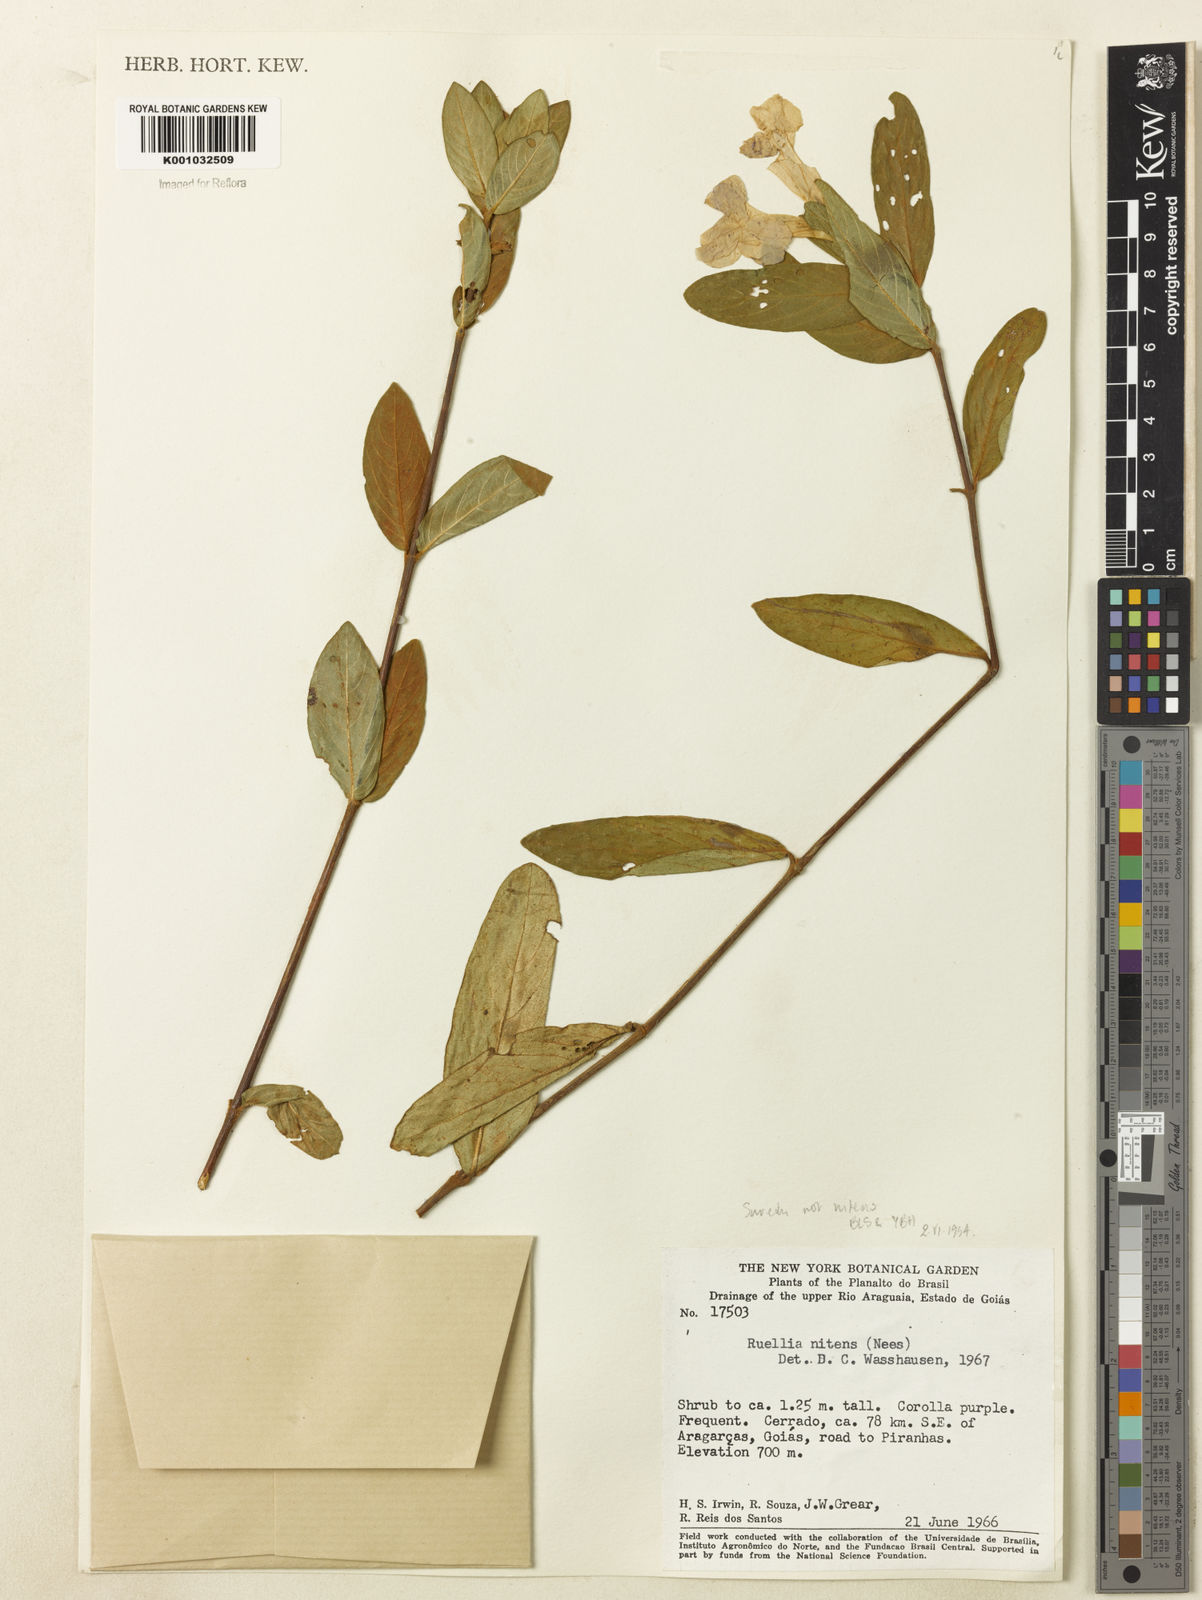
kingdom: Plantae
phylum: Tracheophyta
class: Magnoliopsida
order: Lamiales
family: Acanthaceae
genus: Ruellia
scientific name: Ruellia nitens
